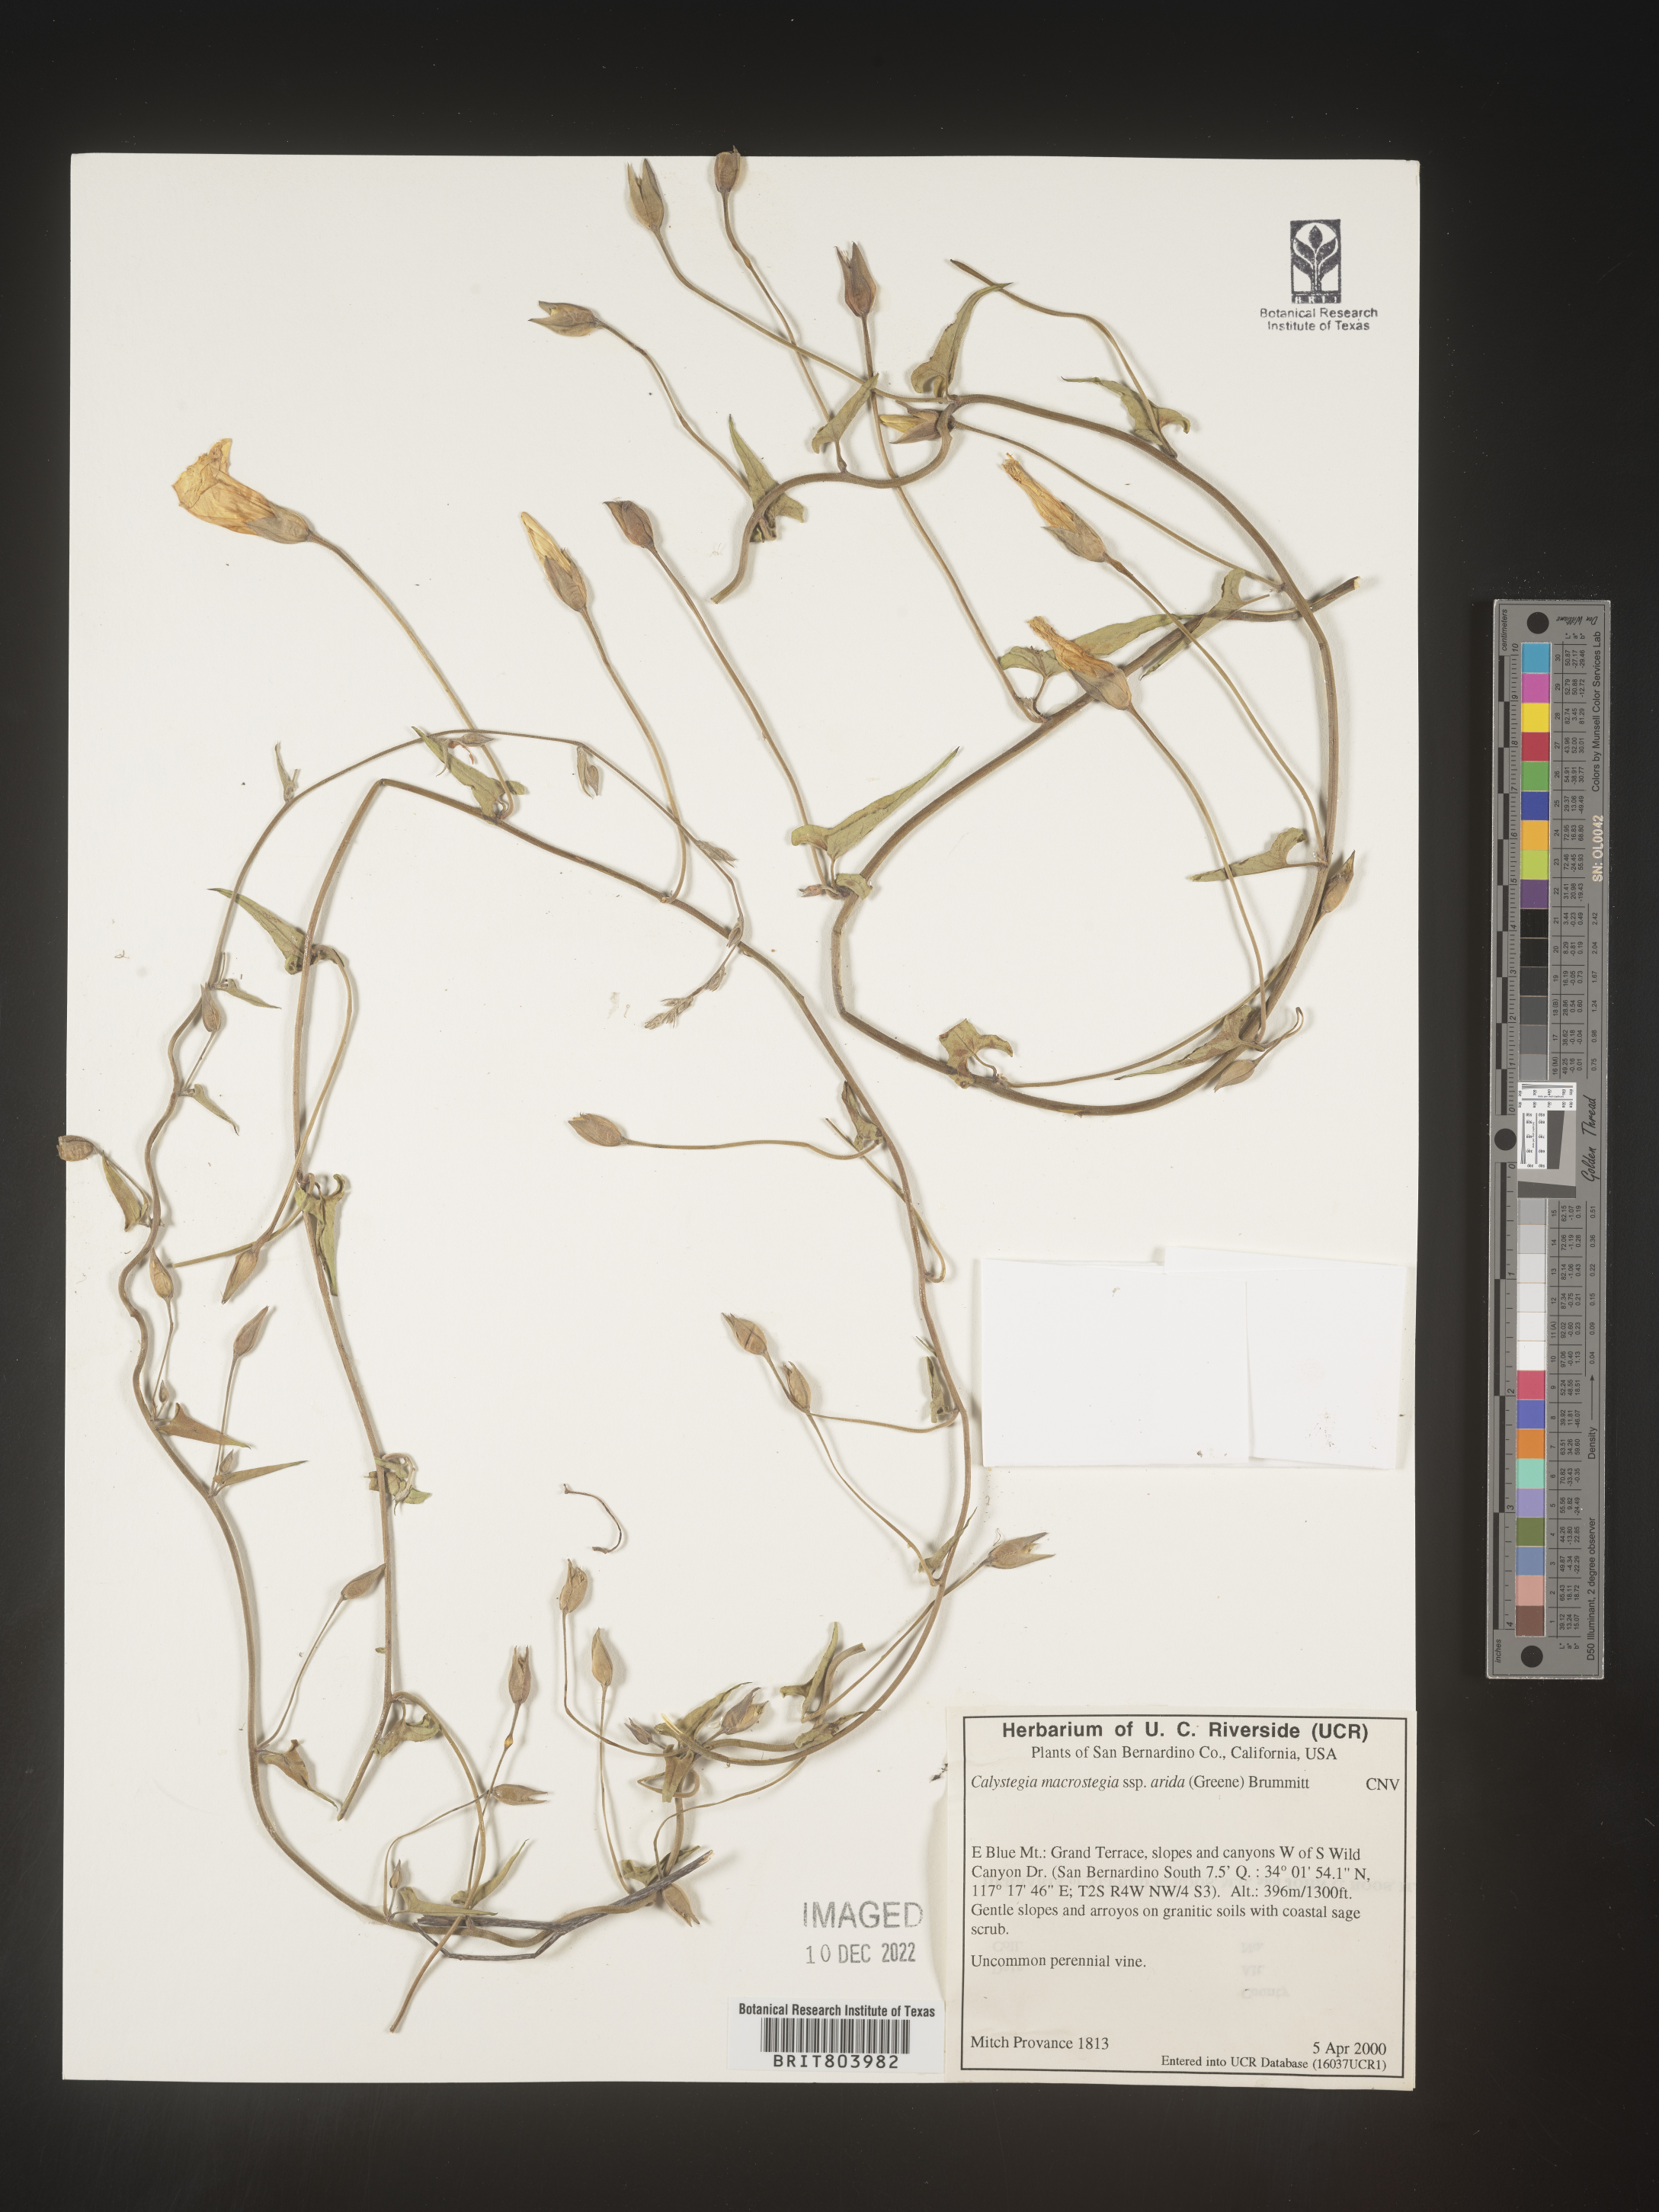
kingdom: Plantae
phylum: Tracheophyta
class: Magnoliopsida
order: Solanales
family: Convolvulaceae
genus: Calystegia
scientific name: Calystegia
